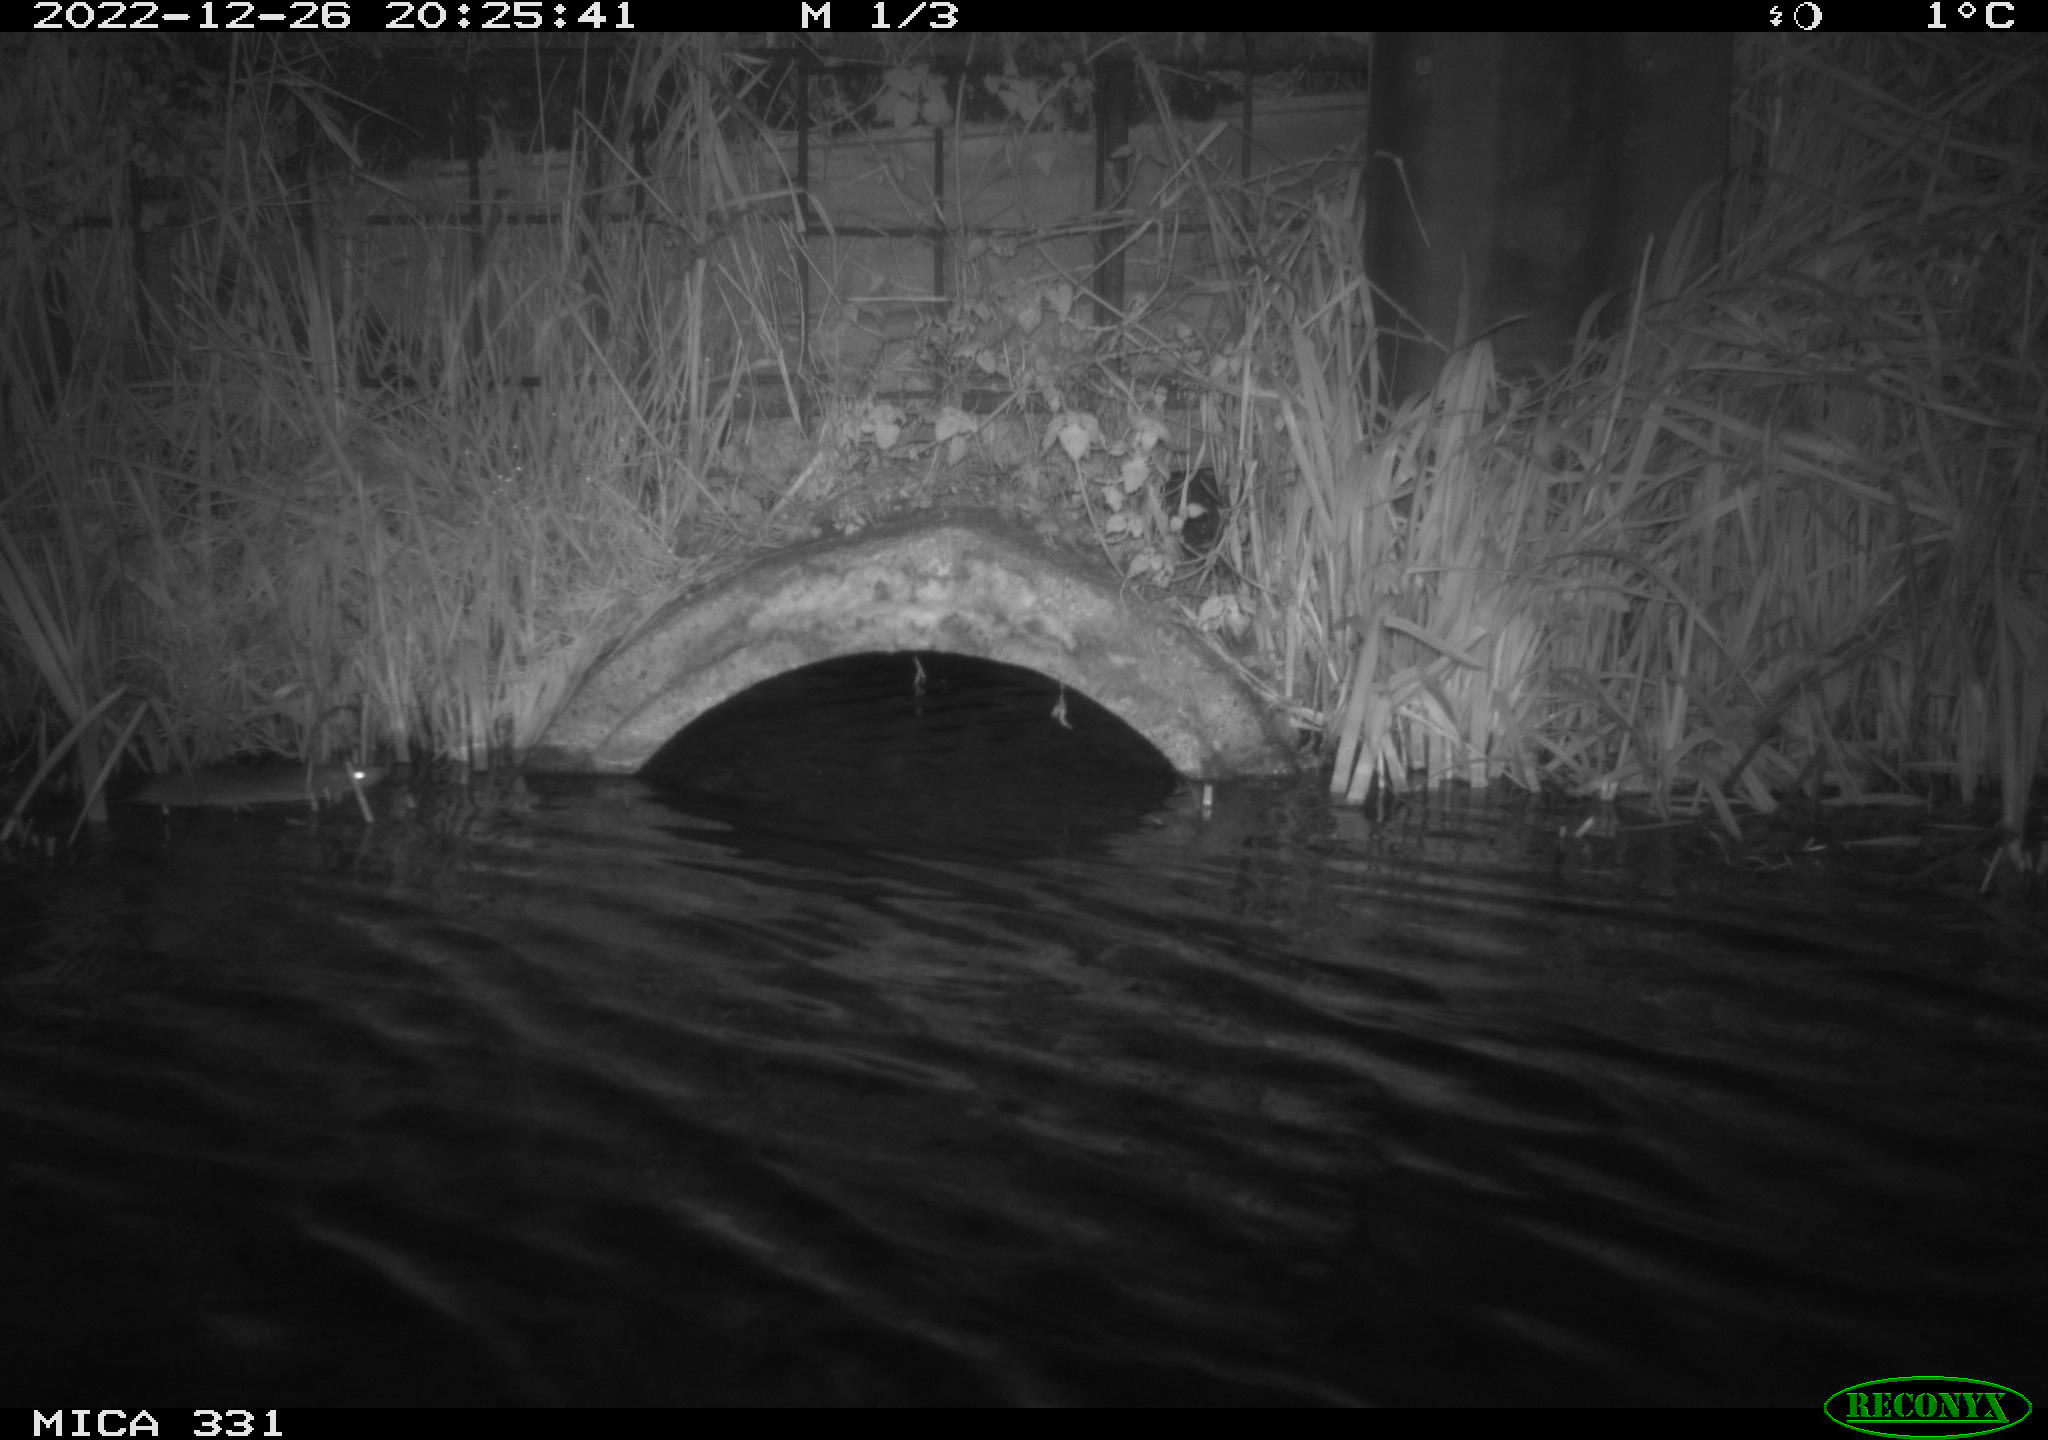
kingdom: Animalia
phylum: Chordata
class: Mammalia
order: Rodentia
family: Muridae
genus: Rattus
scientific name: Rattus norvegicus
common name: Brown rat
